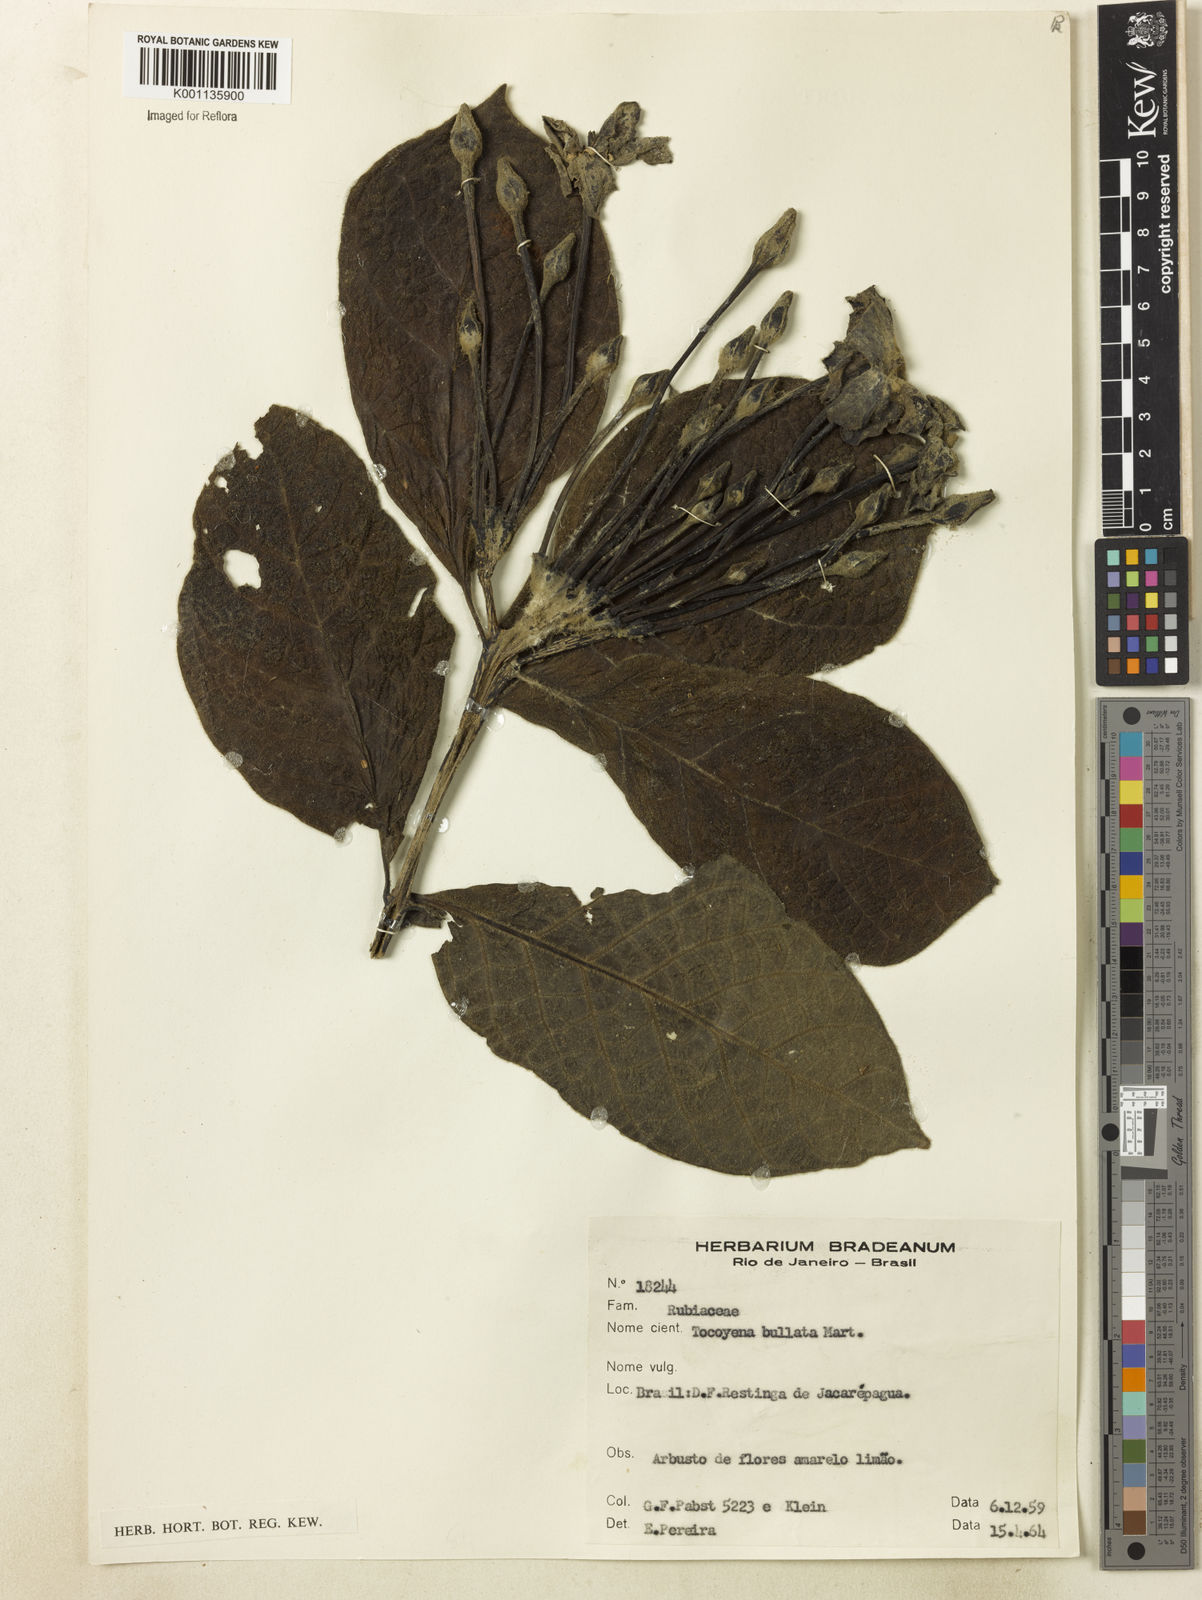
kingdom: Plantae
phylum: Tracheophyta
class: Magnoliopsida
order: Gentianales
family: Rubiaceae
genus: Tocoyena
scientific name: Tocoyena bullata
